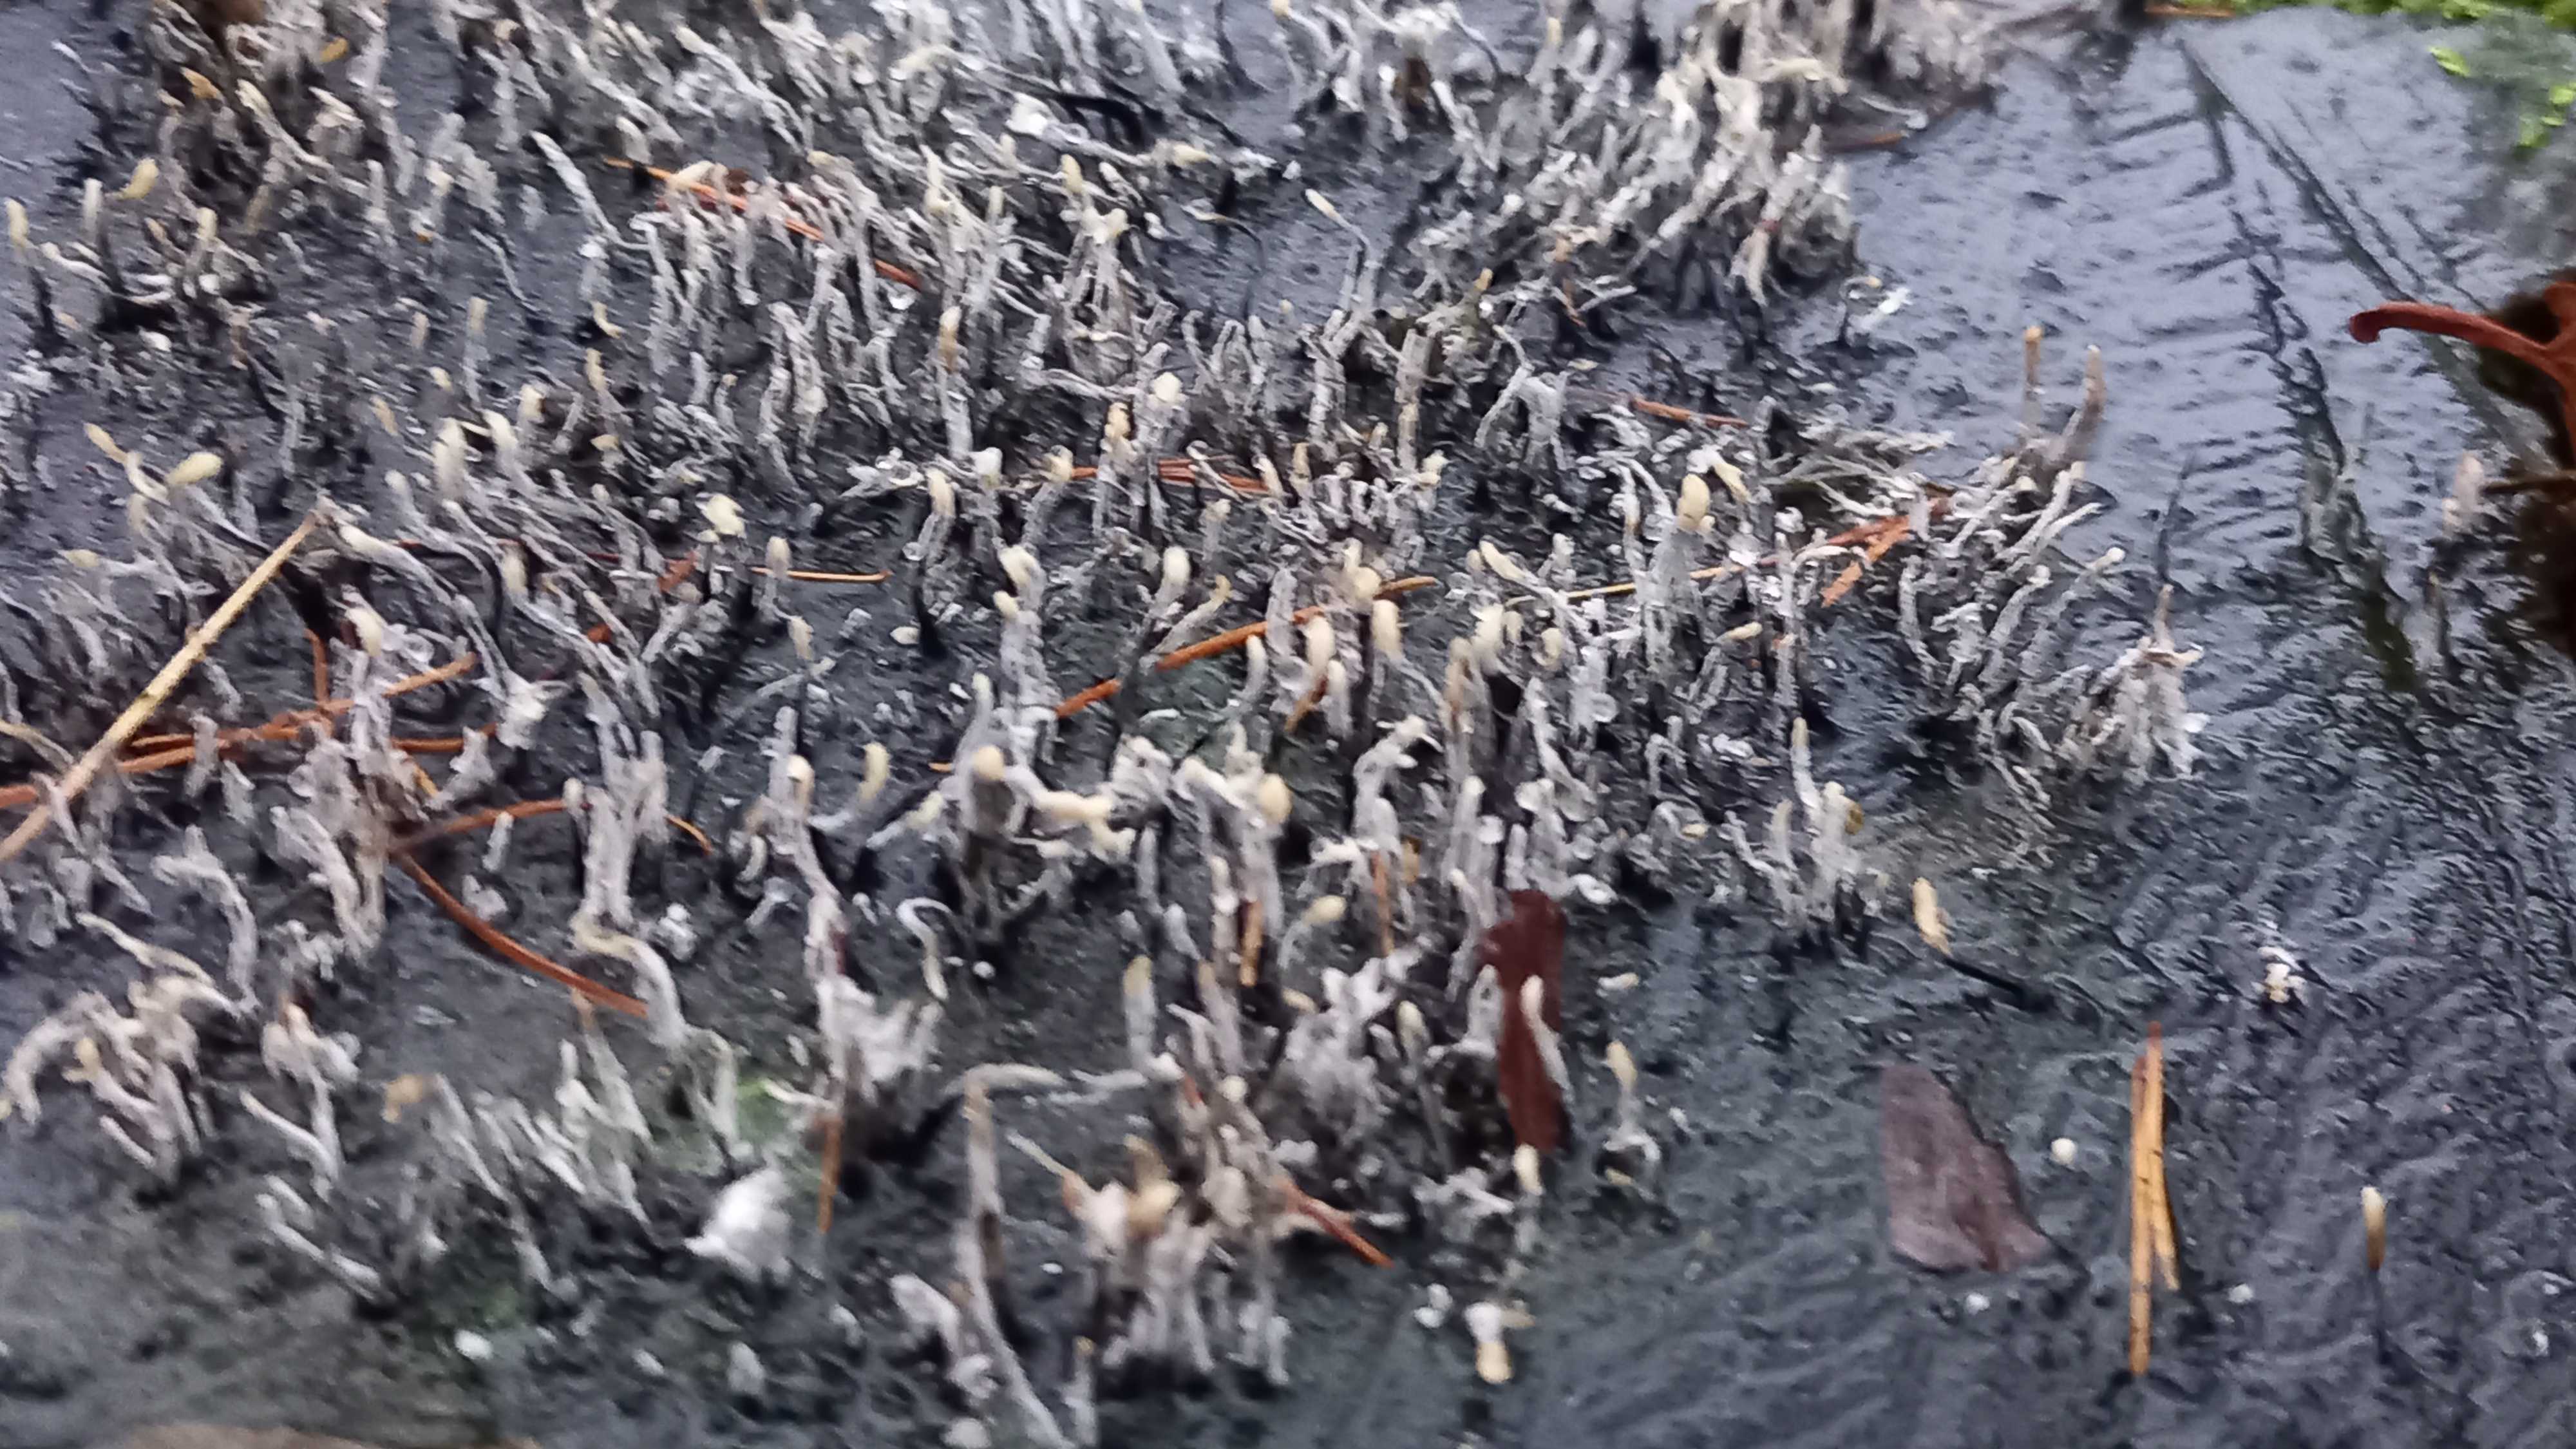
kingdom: Fungi
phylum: Ascomycota
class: Sordariomycetes
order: Xylariales
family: Xylariaceae
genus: Xylaria
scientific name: Xylaria hypoxylon
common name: grenet stødsvamp
